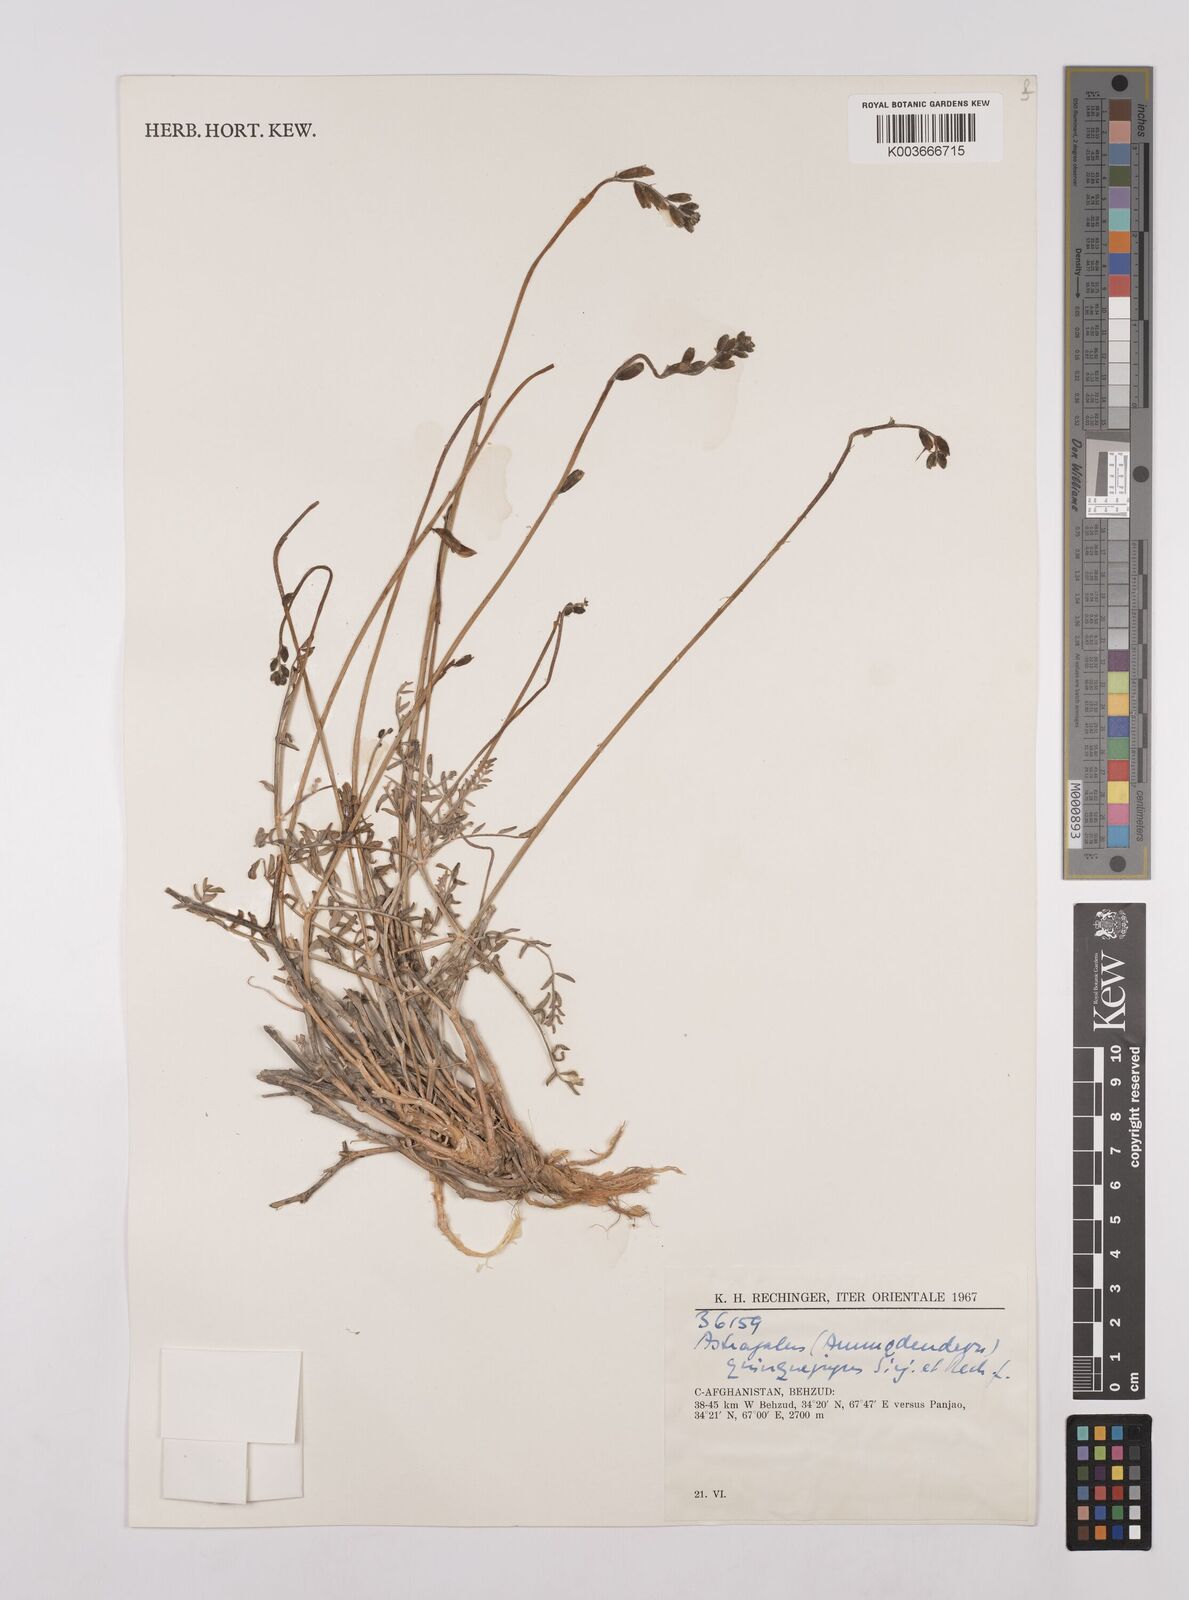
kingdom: Plantae
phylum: Tracheophyta
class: Magnoliopsida
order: Fabales
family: Fabaceae
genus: Astragalus
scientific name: Astragalus griffithii
